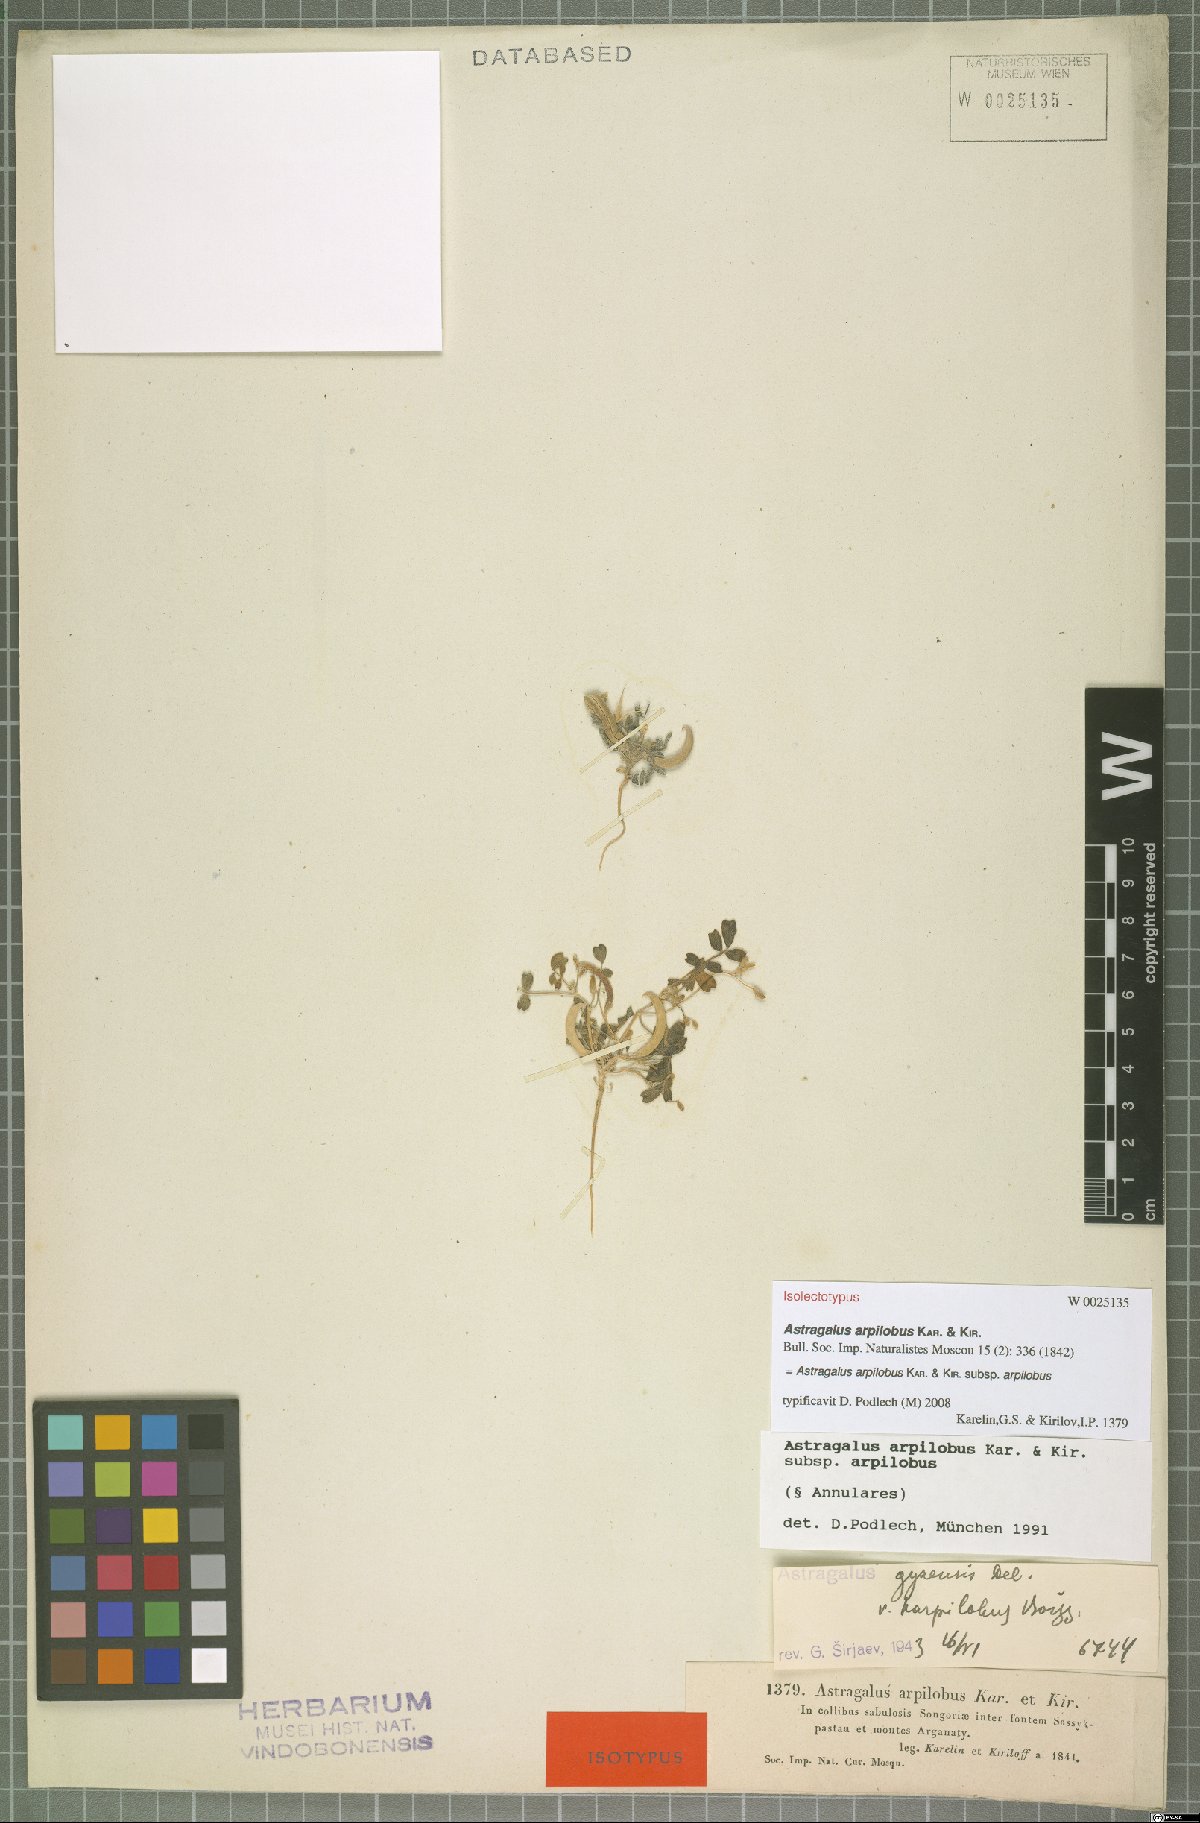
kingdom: Plantae
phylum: Tracheophyta
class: Magnoliopsida
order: Fabales
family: Fabaceae
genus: Astragalus
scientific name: Astragalus arpilobus
